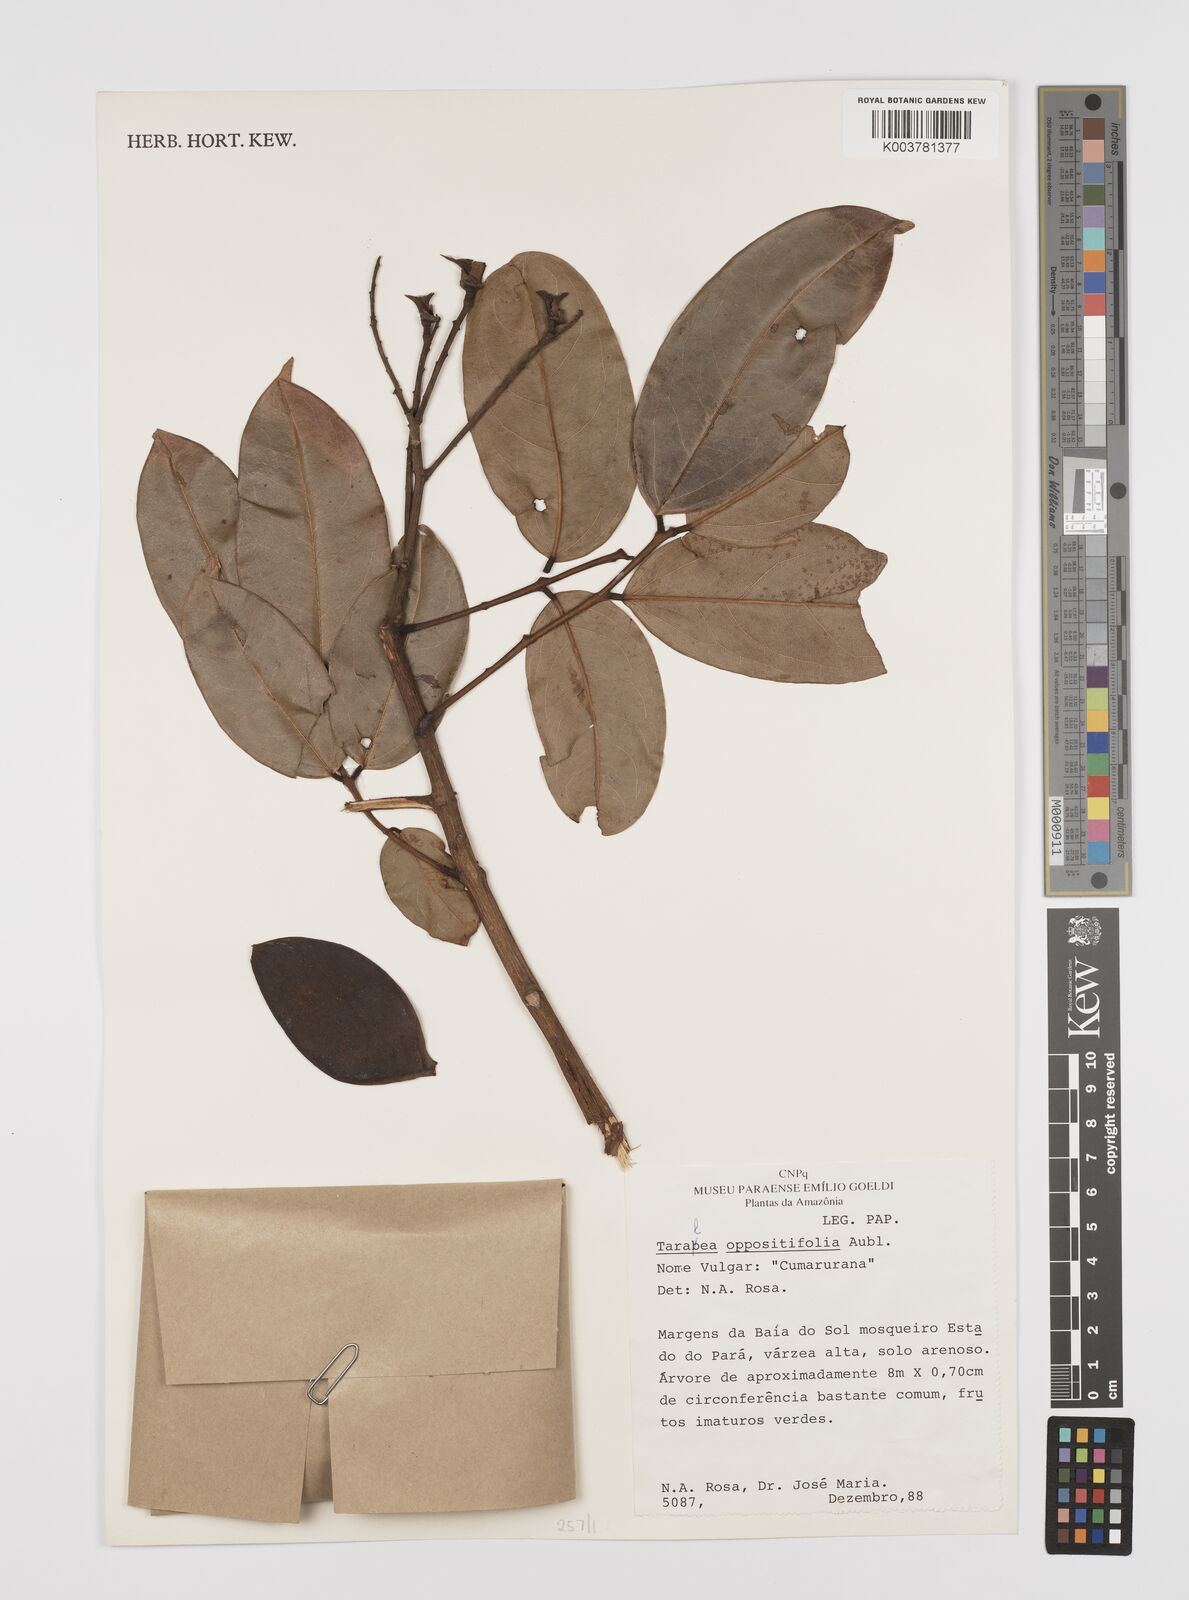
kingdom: Plantae
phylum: Tracheophyta
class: Magnoliopsida
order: Fabales
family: Fabaceae
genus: Taralea
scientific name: Taralea oppositifolia
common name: Tonka
